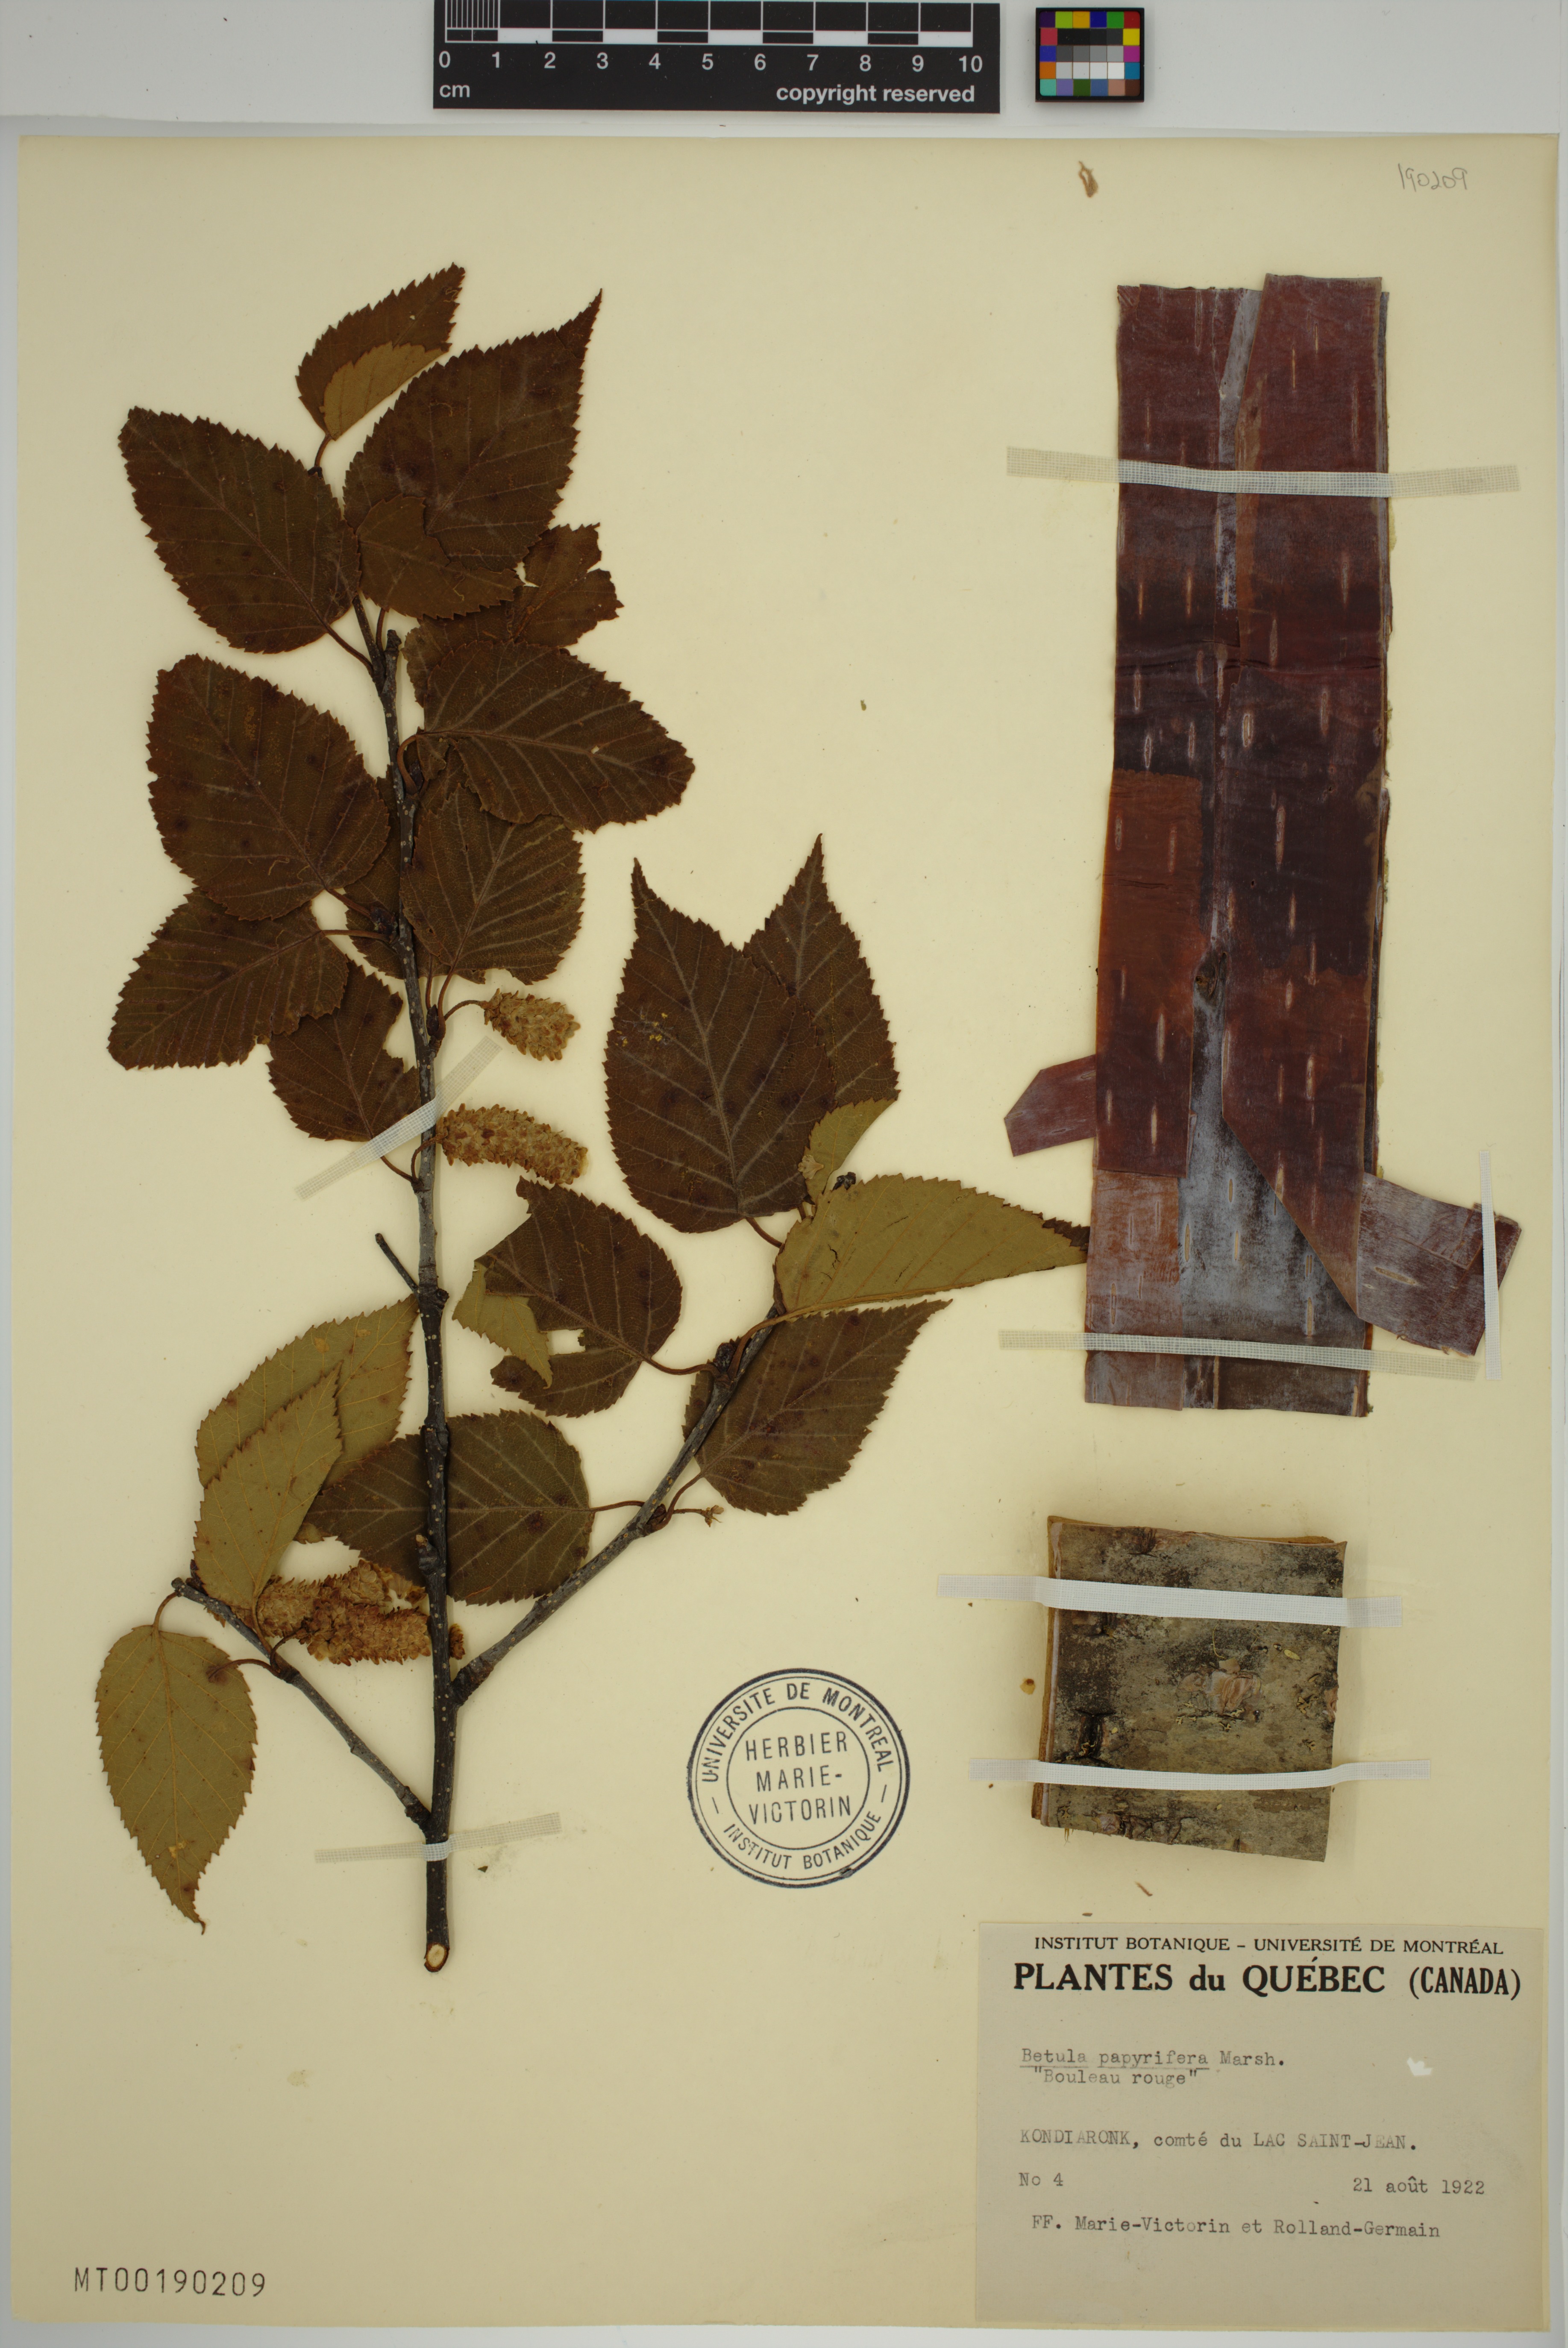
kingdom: Plantae
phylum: Tracheophyta
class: Magnoliopsida
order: Fagales
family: Betulaceae
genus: Betula
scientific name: Betula papyrifera
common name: Paper birch
